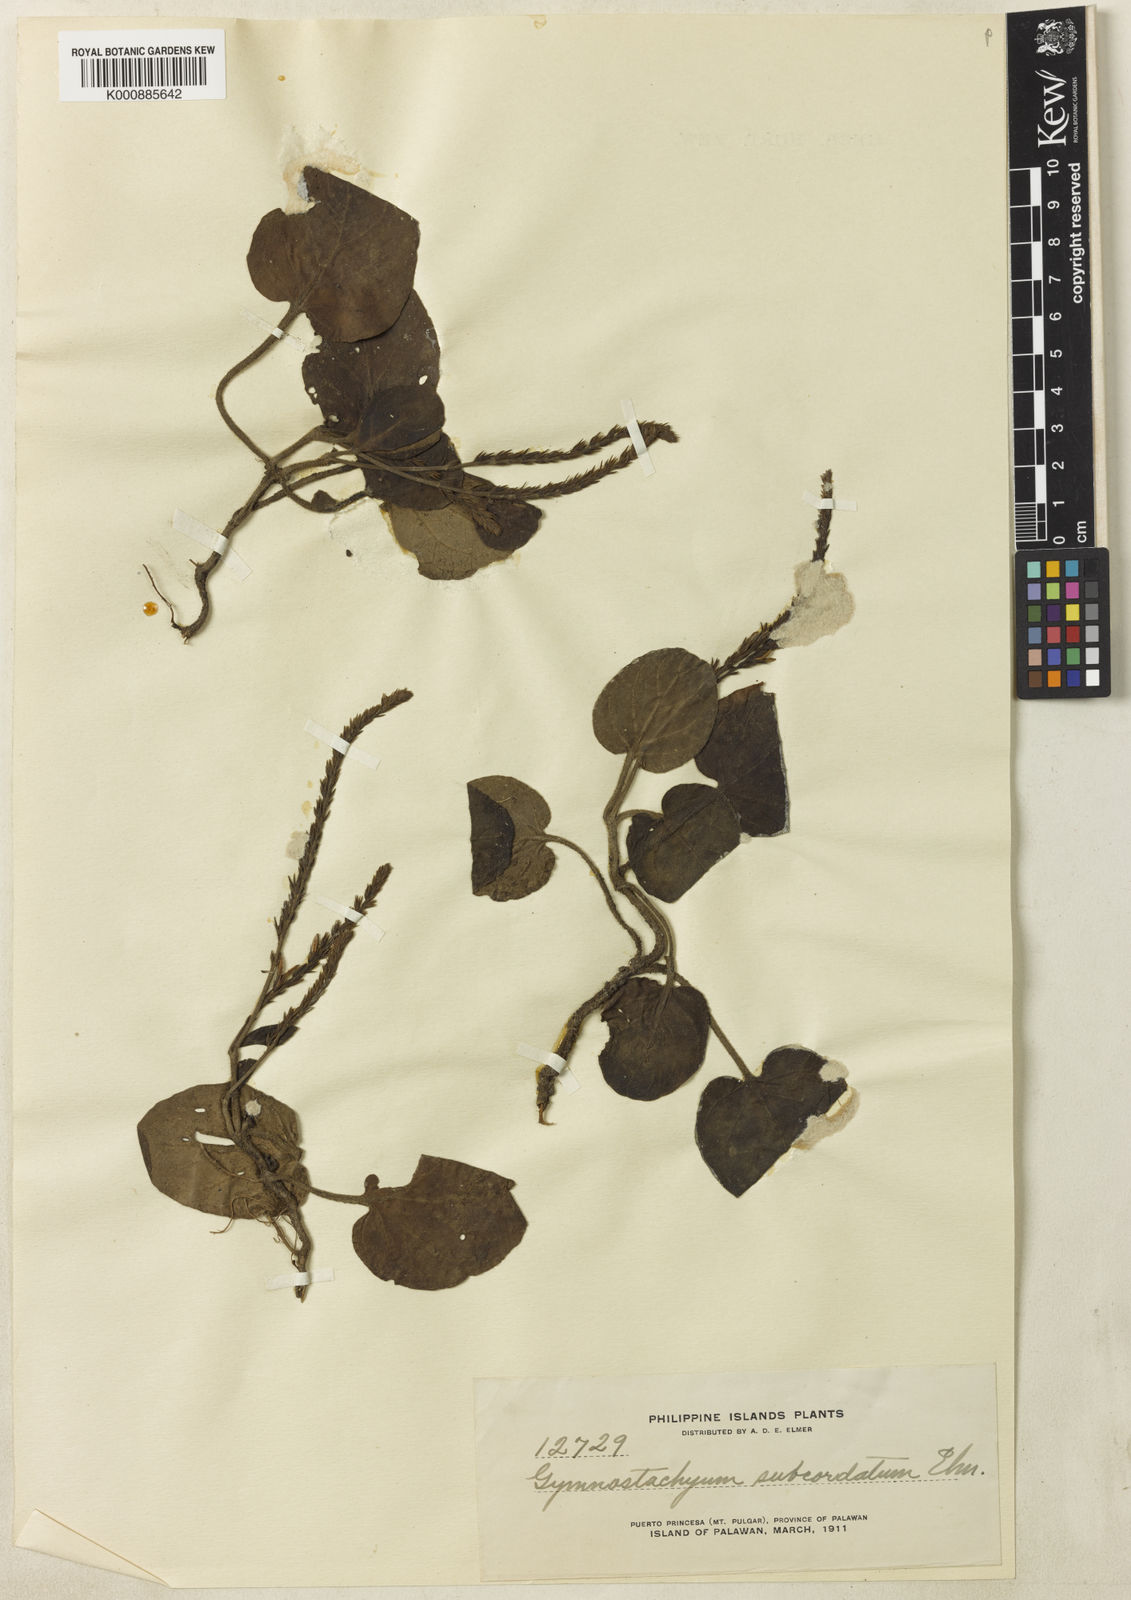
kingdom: Plantae
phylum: Tracheophyta
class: Magnoliopsida
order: Lamiales
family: Acanthaceae
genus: Staurogyne
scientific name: Staurogyne elmeri
